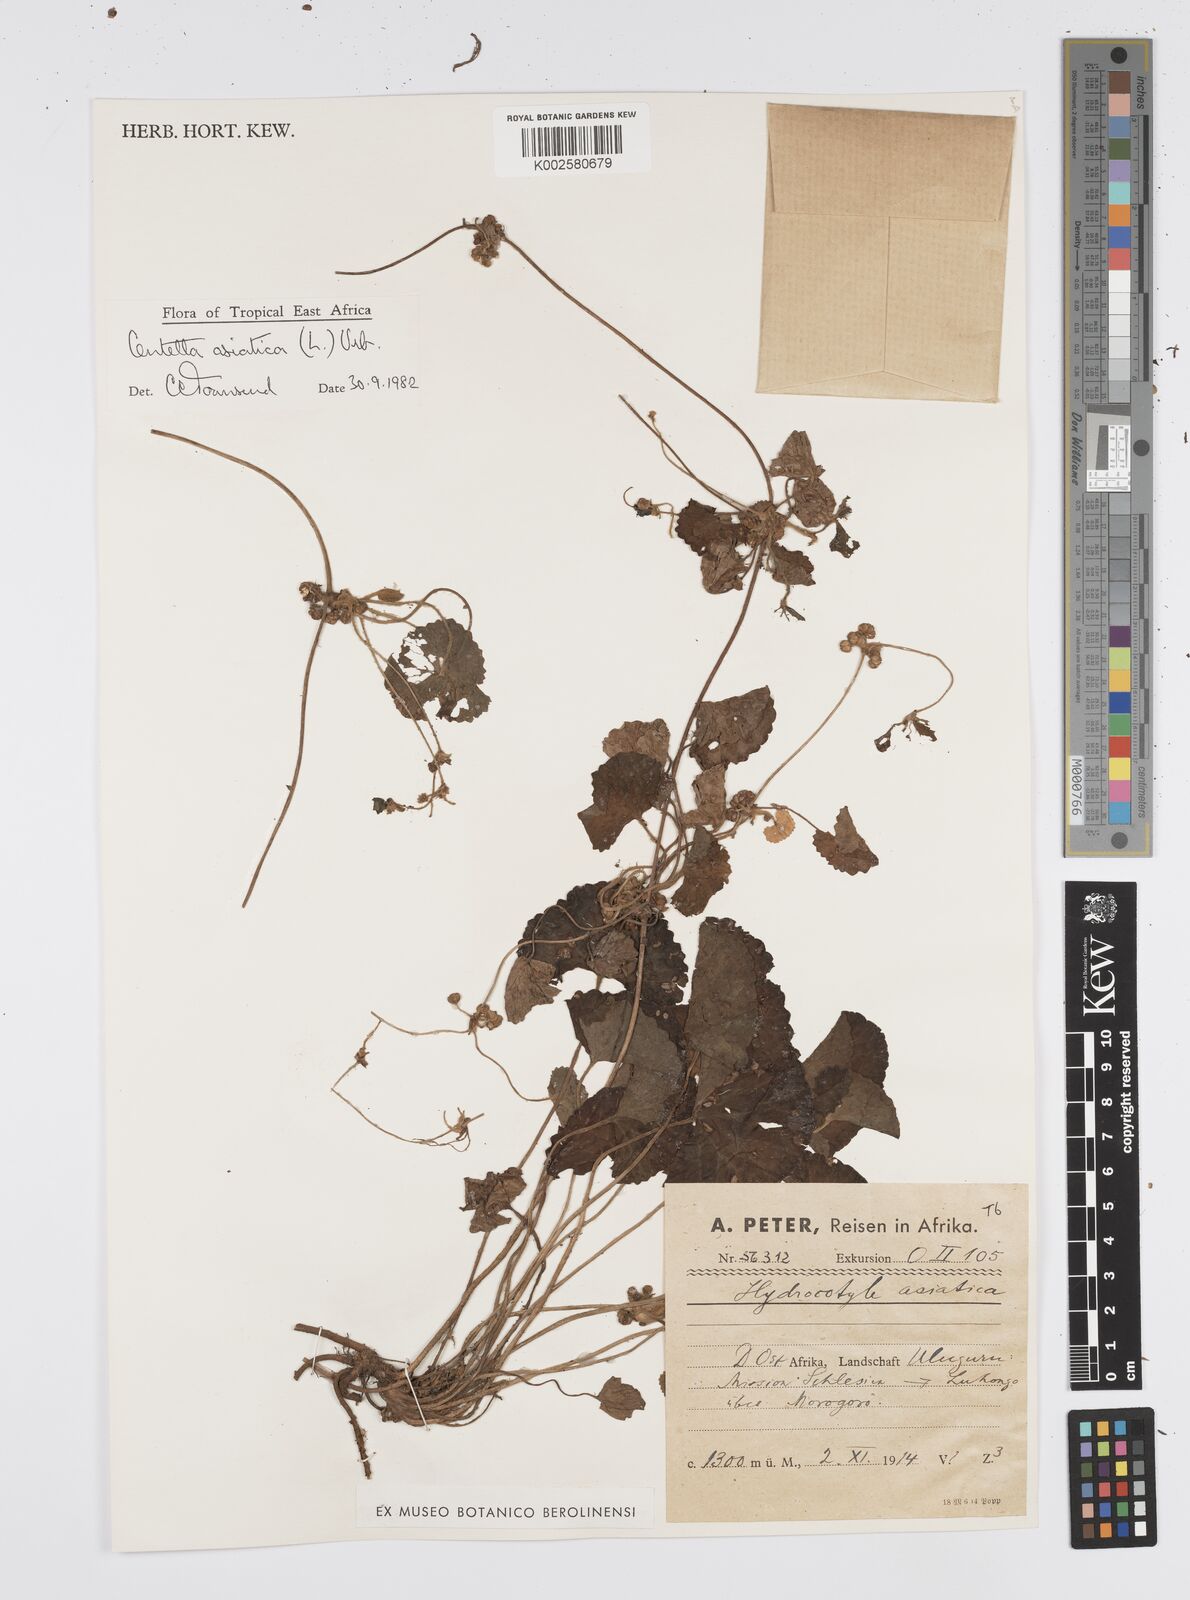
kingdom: Plantae
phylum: Tracheophyta
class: Magnoliopsida
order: Apiales
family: Apiaceae
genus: Centella
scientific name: Centella asiatica
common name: Spadeleaf
